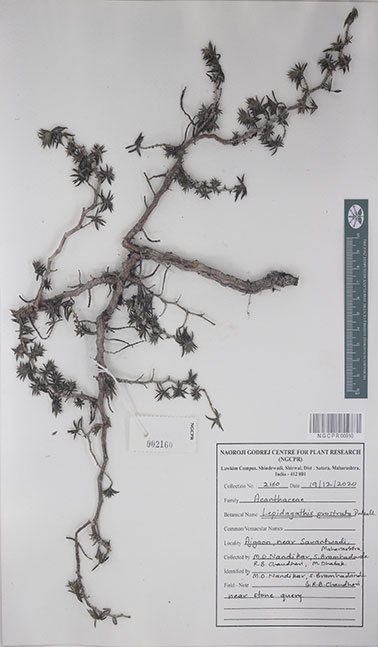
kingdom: Plantae
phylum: Tracheophyta
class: Magnoliopsida
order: Lamiales
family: Acanthaceae
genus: Lepidagathis
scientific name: Lepidagathis prostrata
